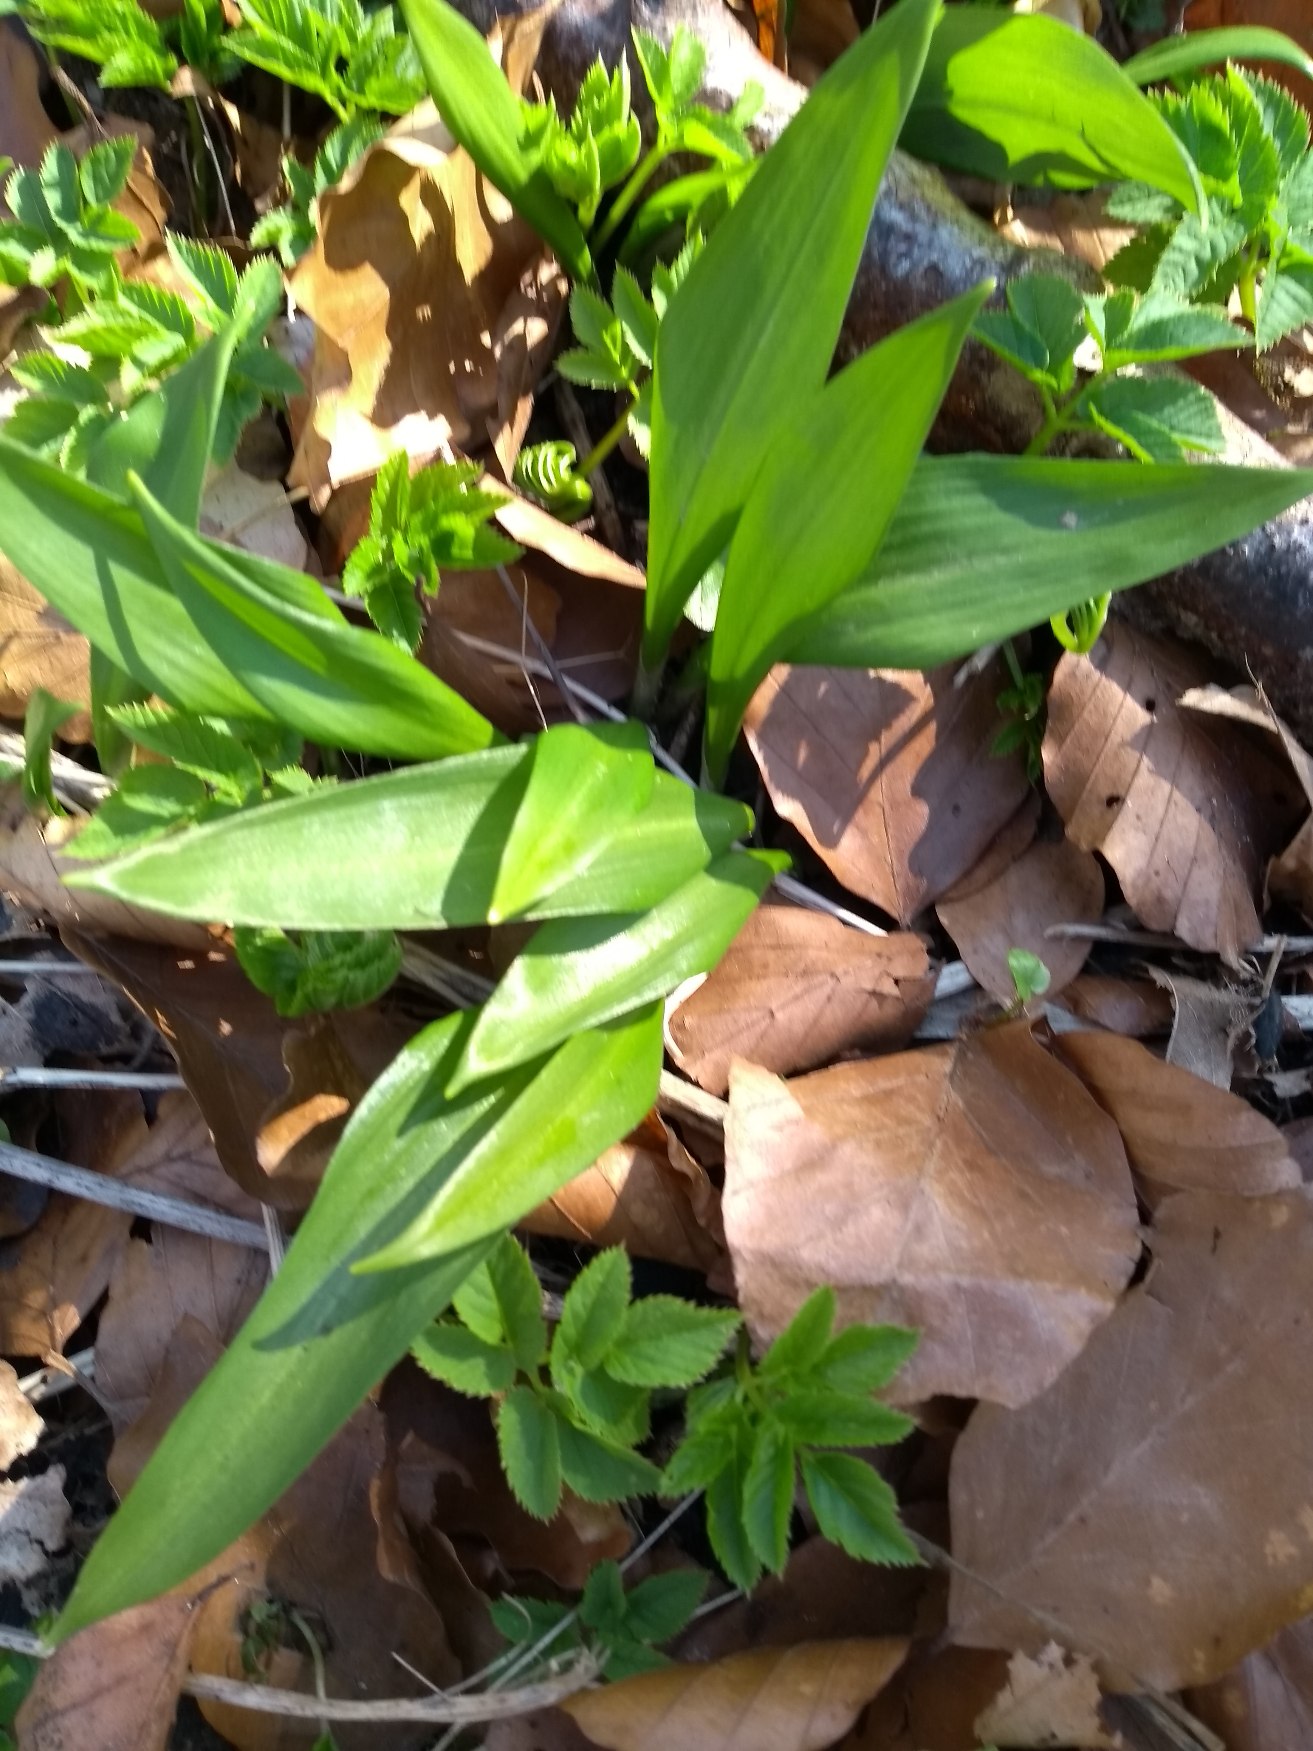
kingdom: Plantae
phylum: Tracheophyta
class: Liliopsida
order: Asparagales
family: Amaryllidaceae
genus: Allium
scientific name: Allium ursinum
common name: Rams-løg
